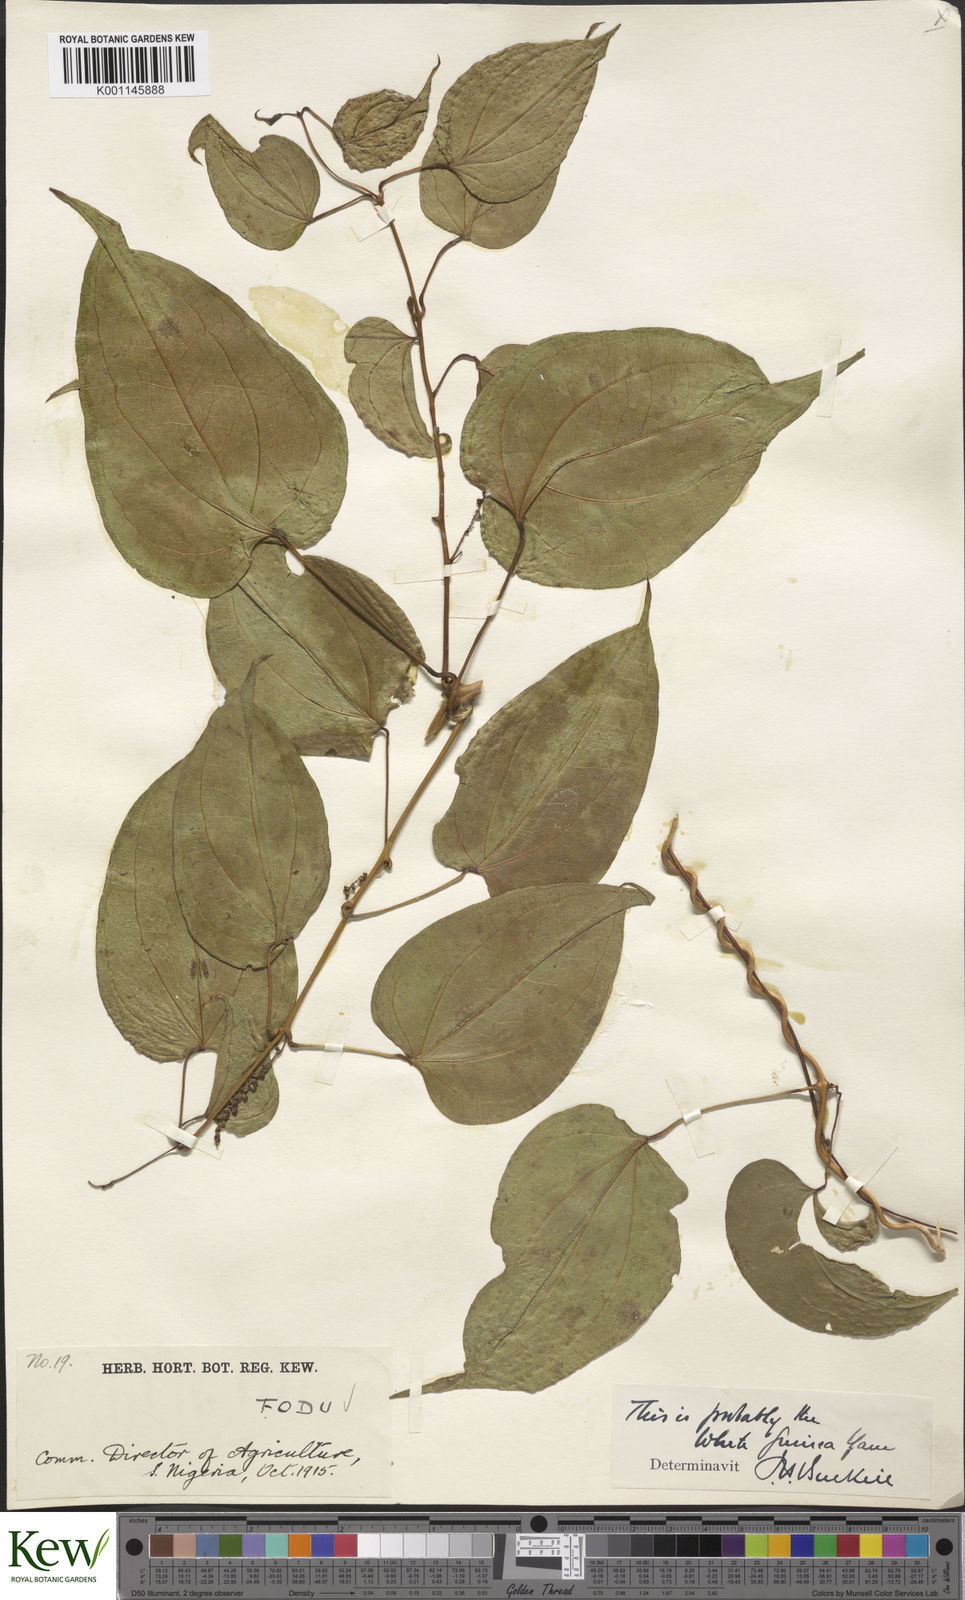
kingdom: Plantae
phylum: Tracheophyta
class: Liliopsida
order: Dioscoreales
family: Dioscoreaceae
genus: Dioscorea
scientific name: Dioscorea cayenensis
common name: Attoto yam
